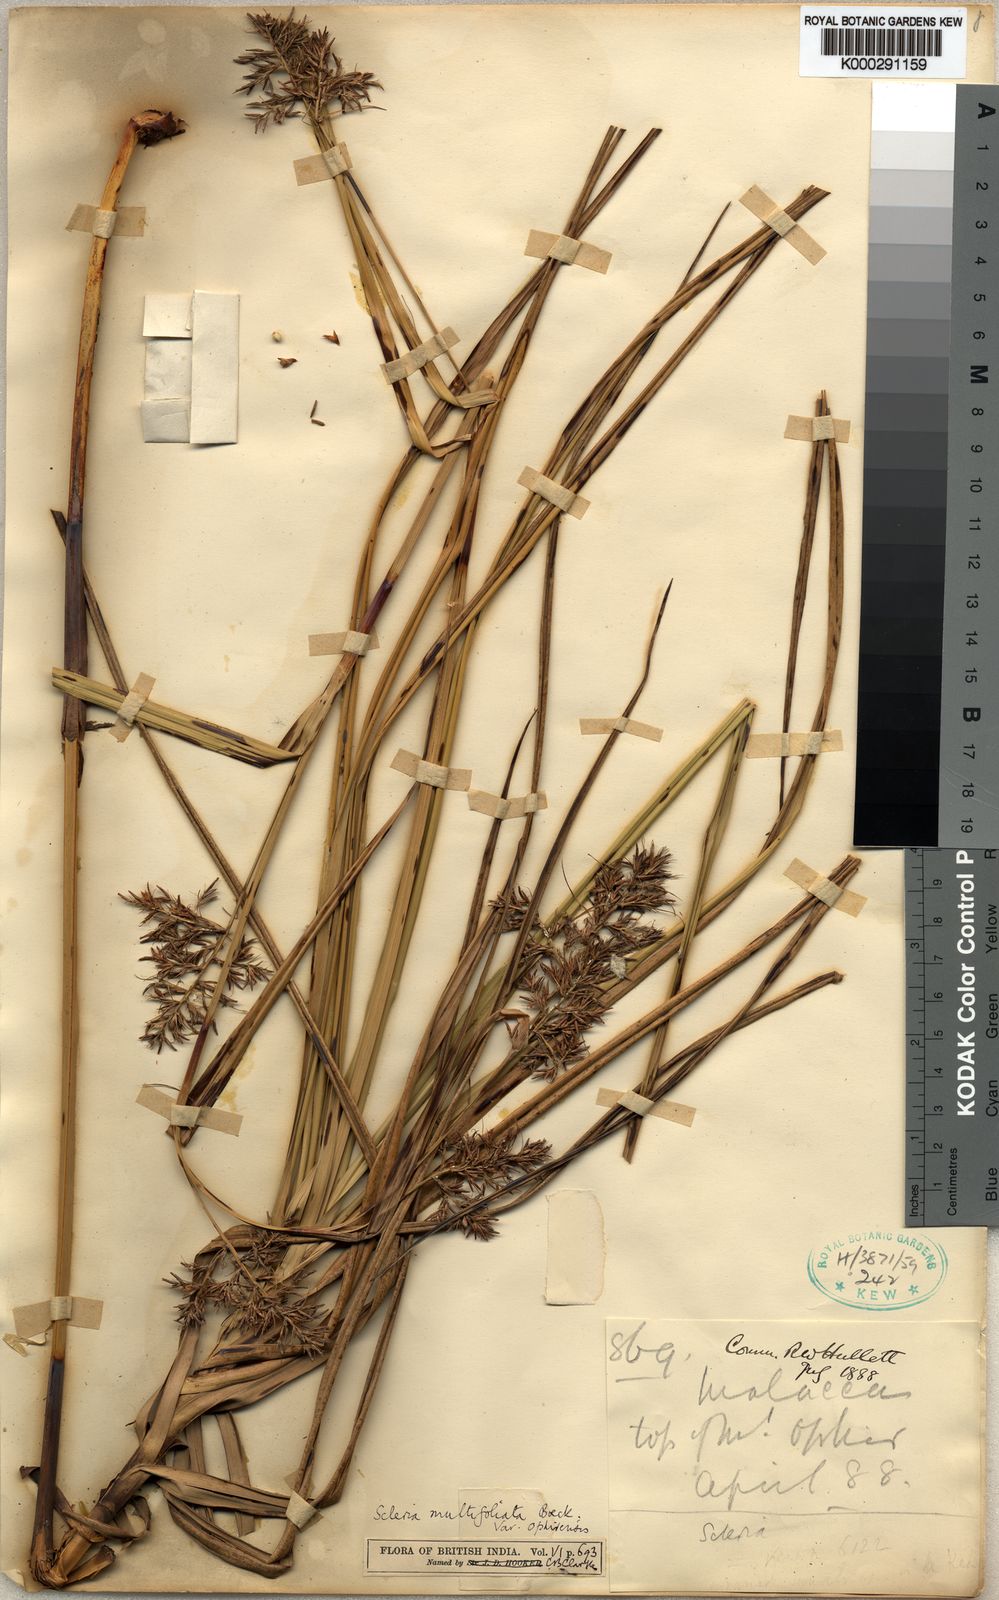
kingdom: Plantae
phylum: Tracheophyta
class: Liliopsida
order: Poales
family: Cyperaceae
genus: Scleria
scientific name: Scleria purpurascens
